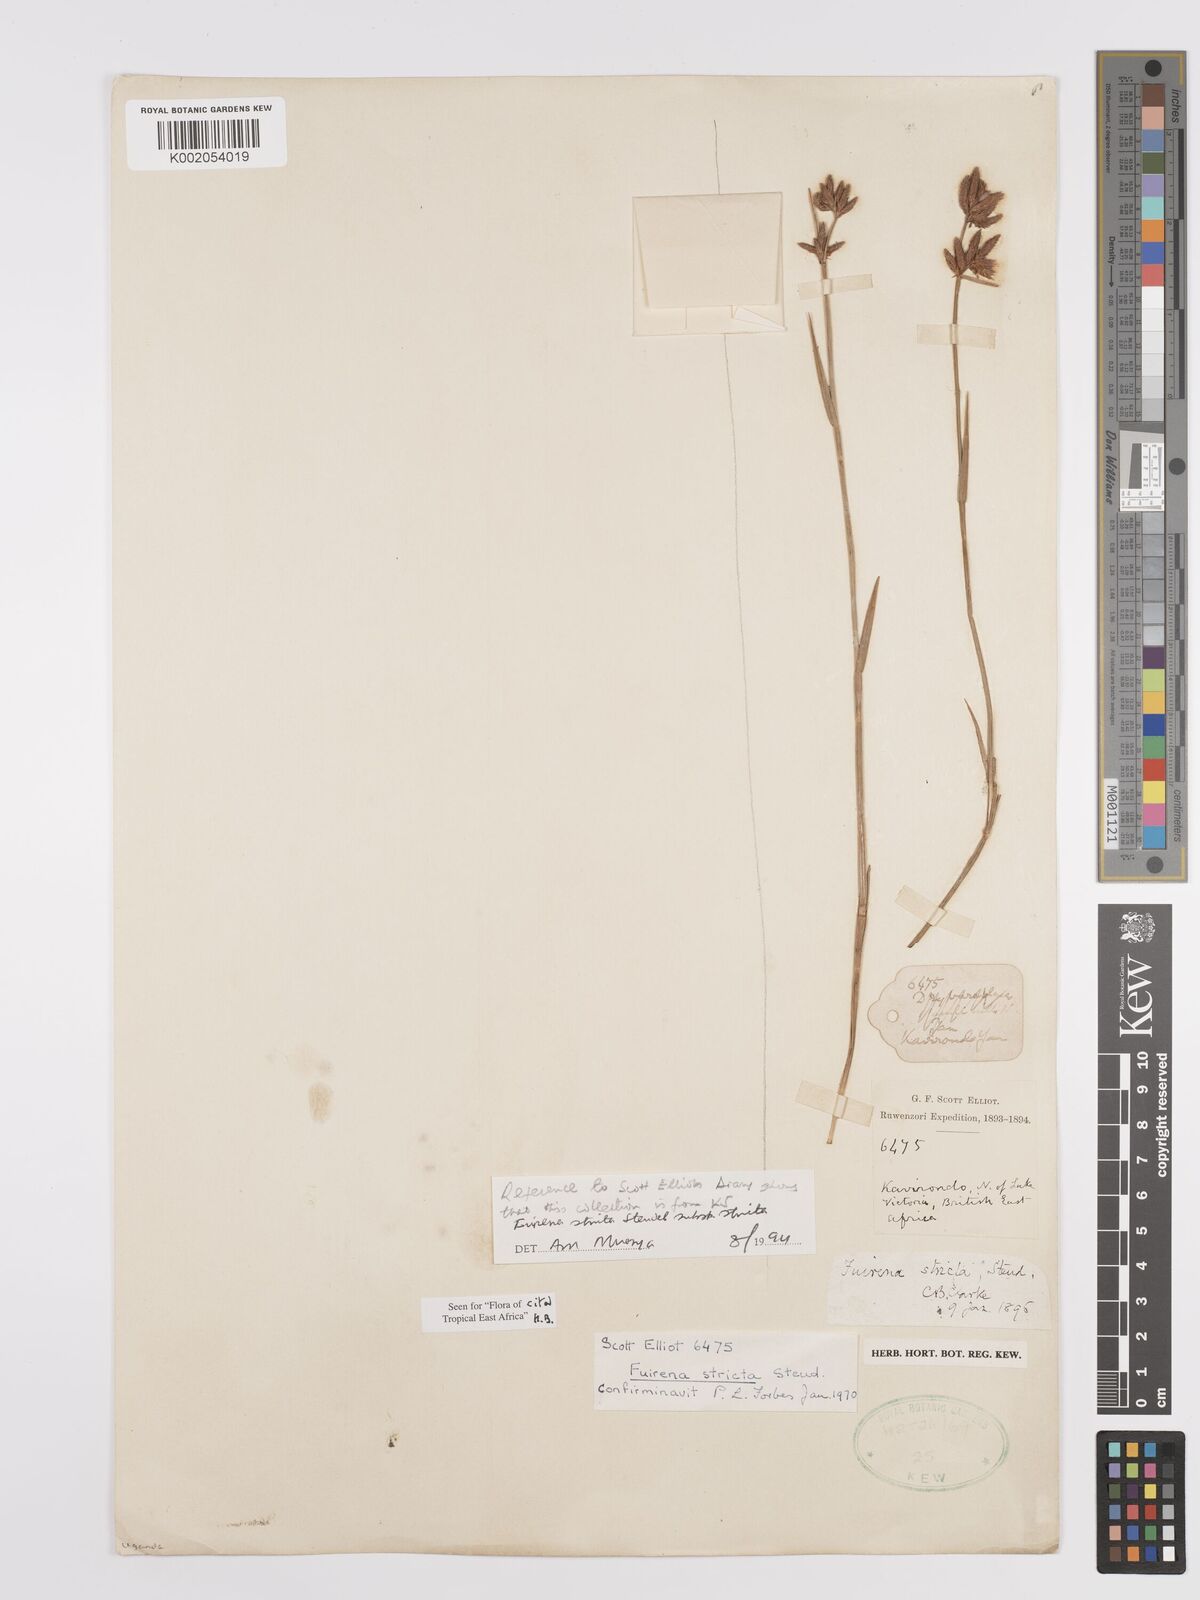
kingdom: Plantae
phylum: Tracheophyta
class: Liliopsida
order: Poales
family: Cyperaceae
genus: Fuirena
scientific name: Fuirena stricta
